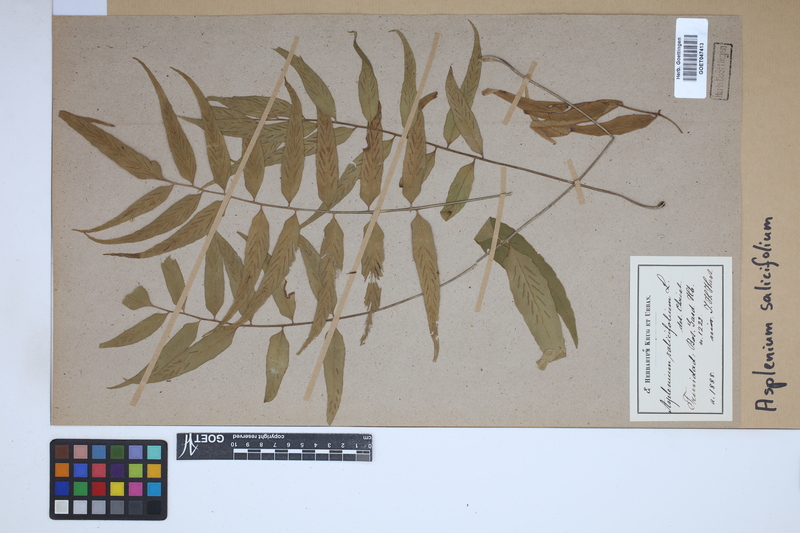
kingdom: Plantae
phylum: Tracheophyta
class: Polypodiopsida
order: Polypodiales
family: Aspleniaceae
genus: Asplenium
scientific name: Asplenium salicifolium
